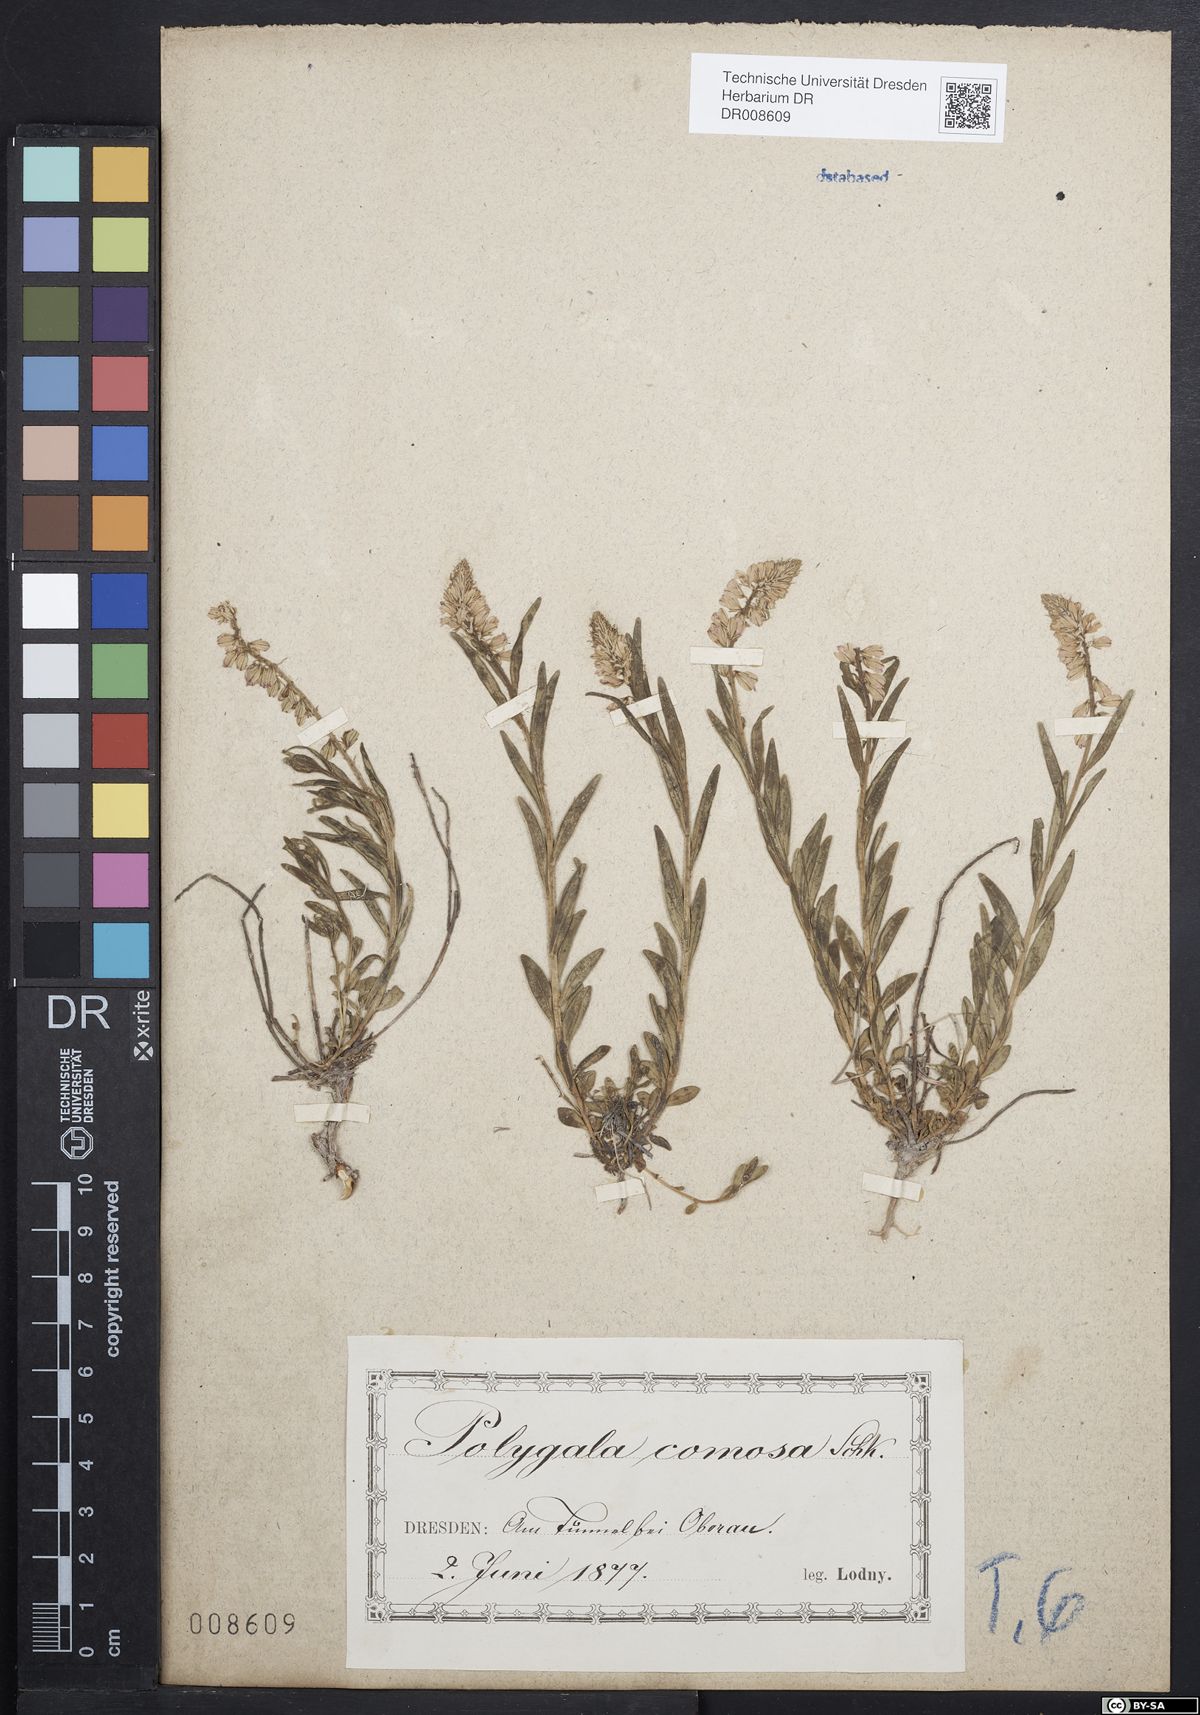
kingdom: Plantae
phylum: Tracheophyta
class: Magnoliopsida
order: Fabales
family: Polygalaceae
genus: Polygala
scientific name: Polygala comosa
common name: Tufted milkwort
